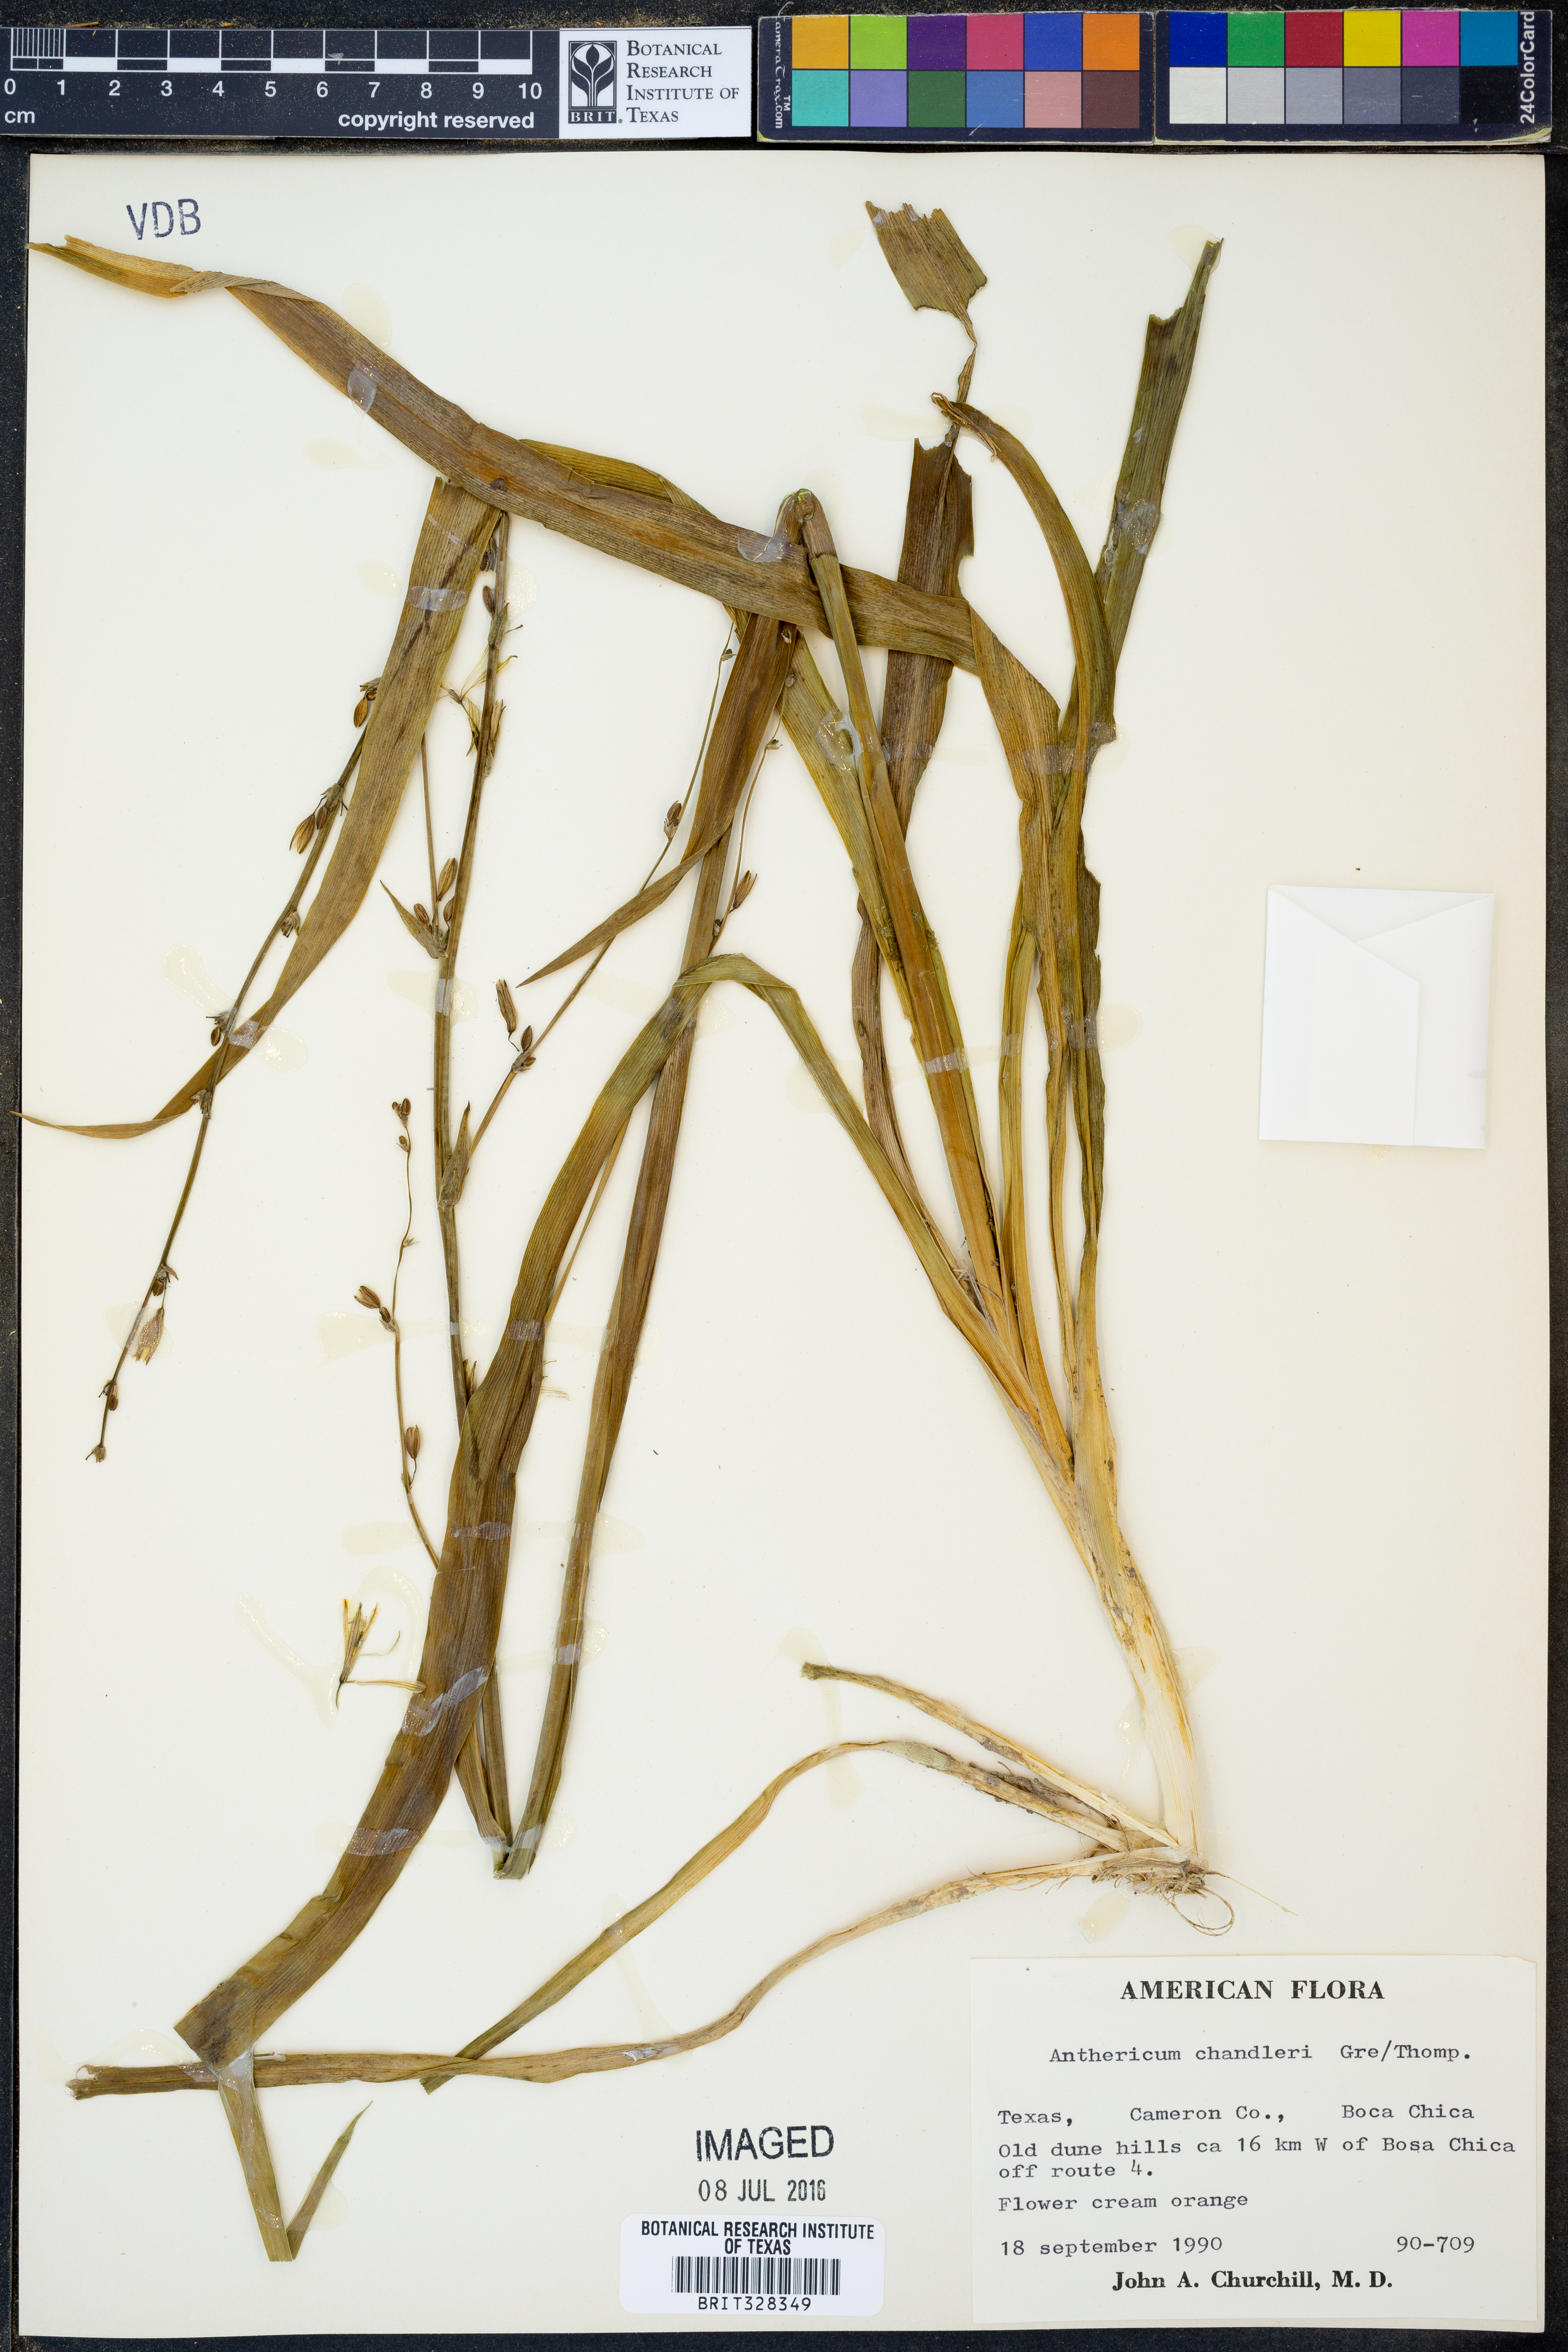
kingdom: Plantae
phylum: Tracheophyta
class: Liliopsida
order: Asparagales
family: Asparagaceae
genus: Echeandia
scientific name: Echeandia chandleri
